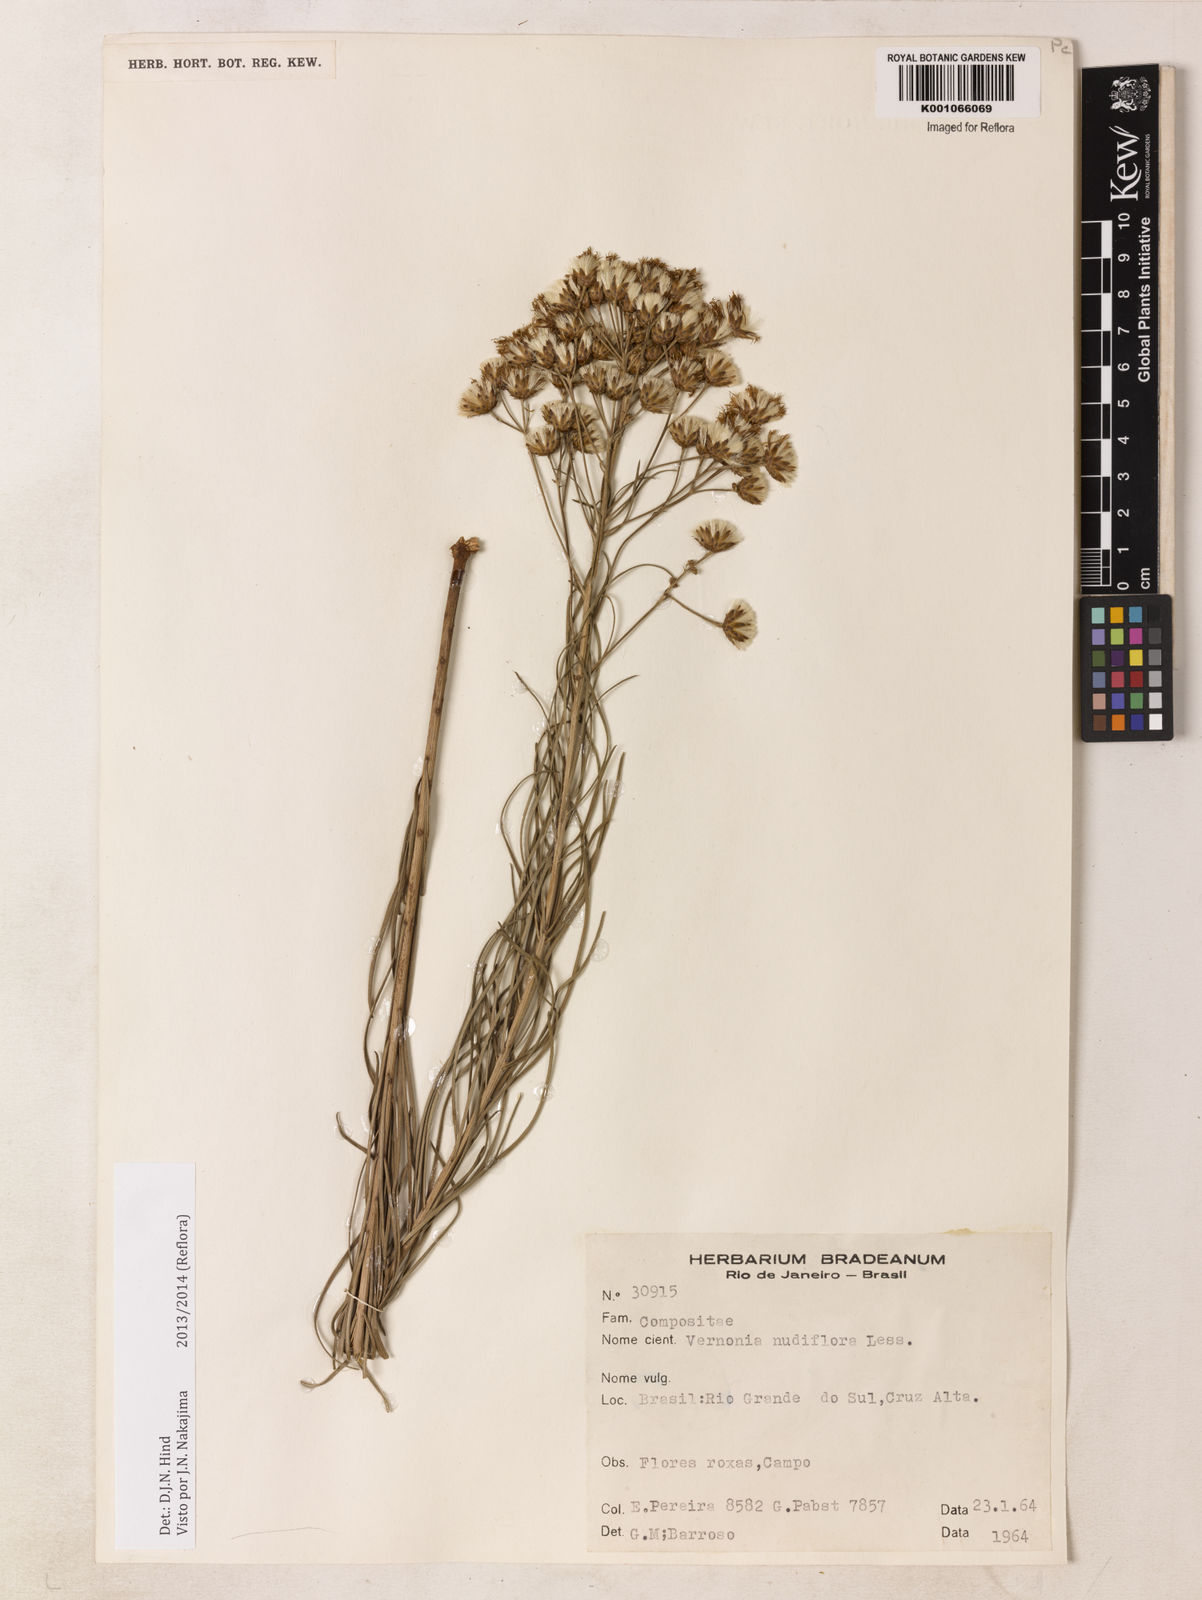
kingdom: Plantae
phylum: Tracheophyta
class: Magnoliopsida
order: Asterales
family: Asteraceae
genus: Vernonanthura
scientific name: Vernonanthura nudiflora
